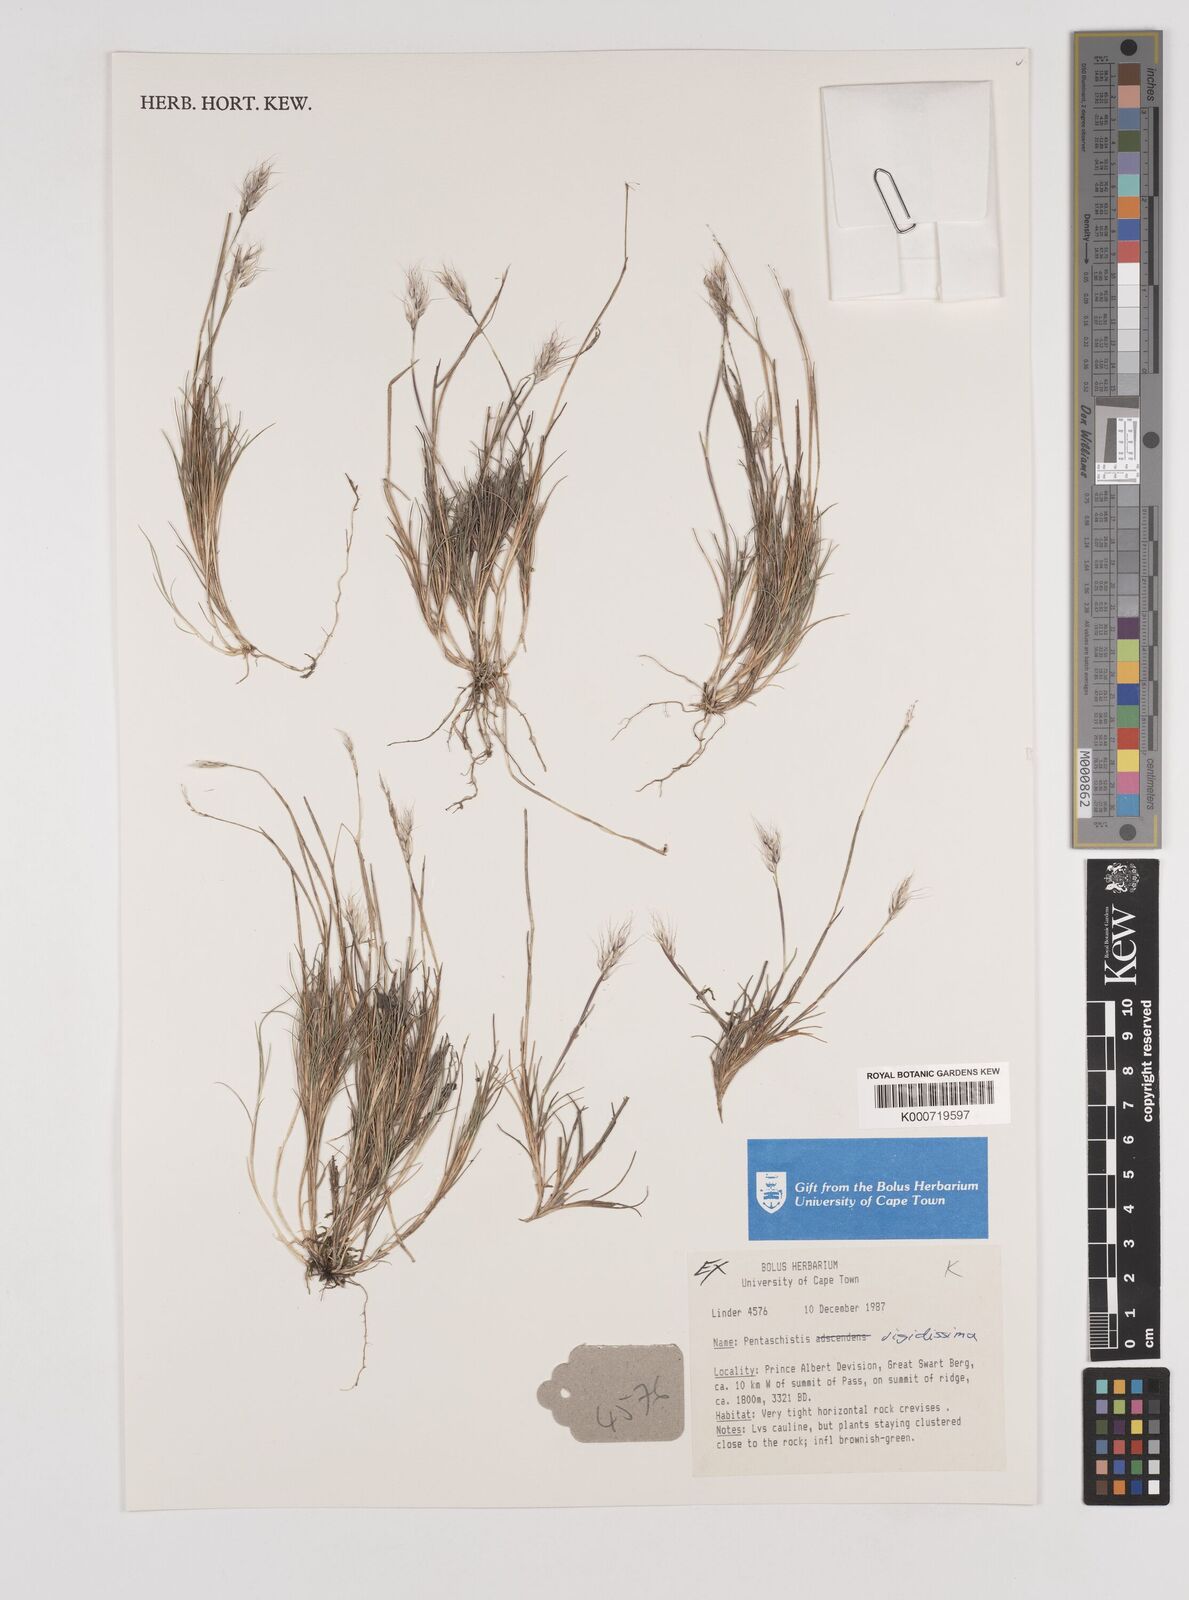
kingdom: Plantae
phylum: Tracheophyta
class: Liliopsida
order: Poales
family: Poaceae
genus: Pentameris
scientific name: Pentameris rigidissima
